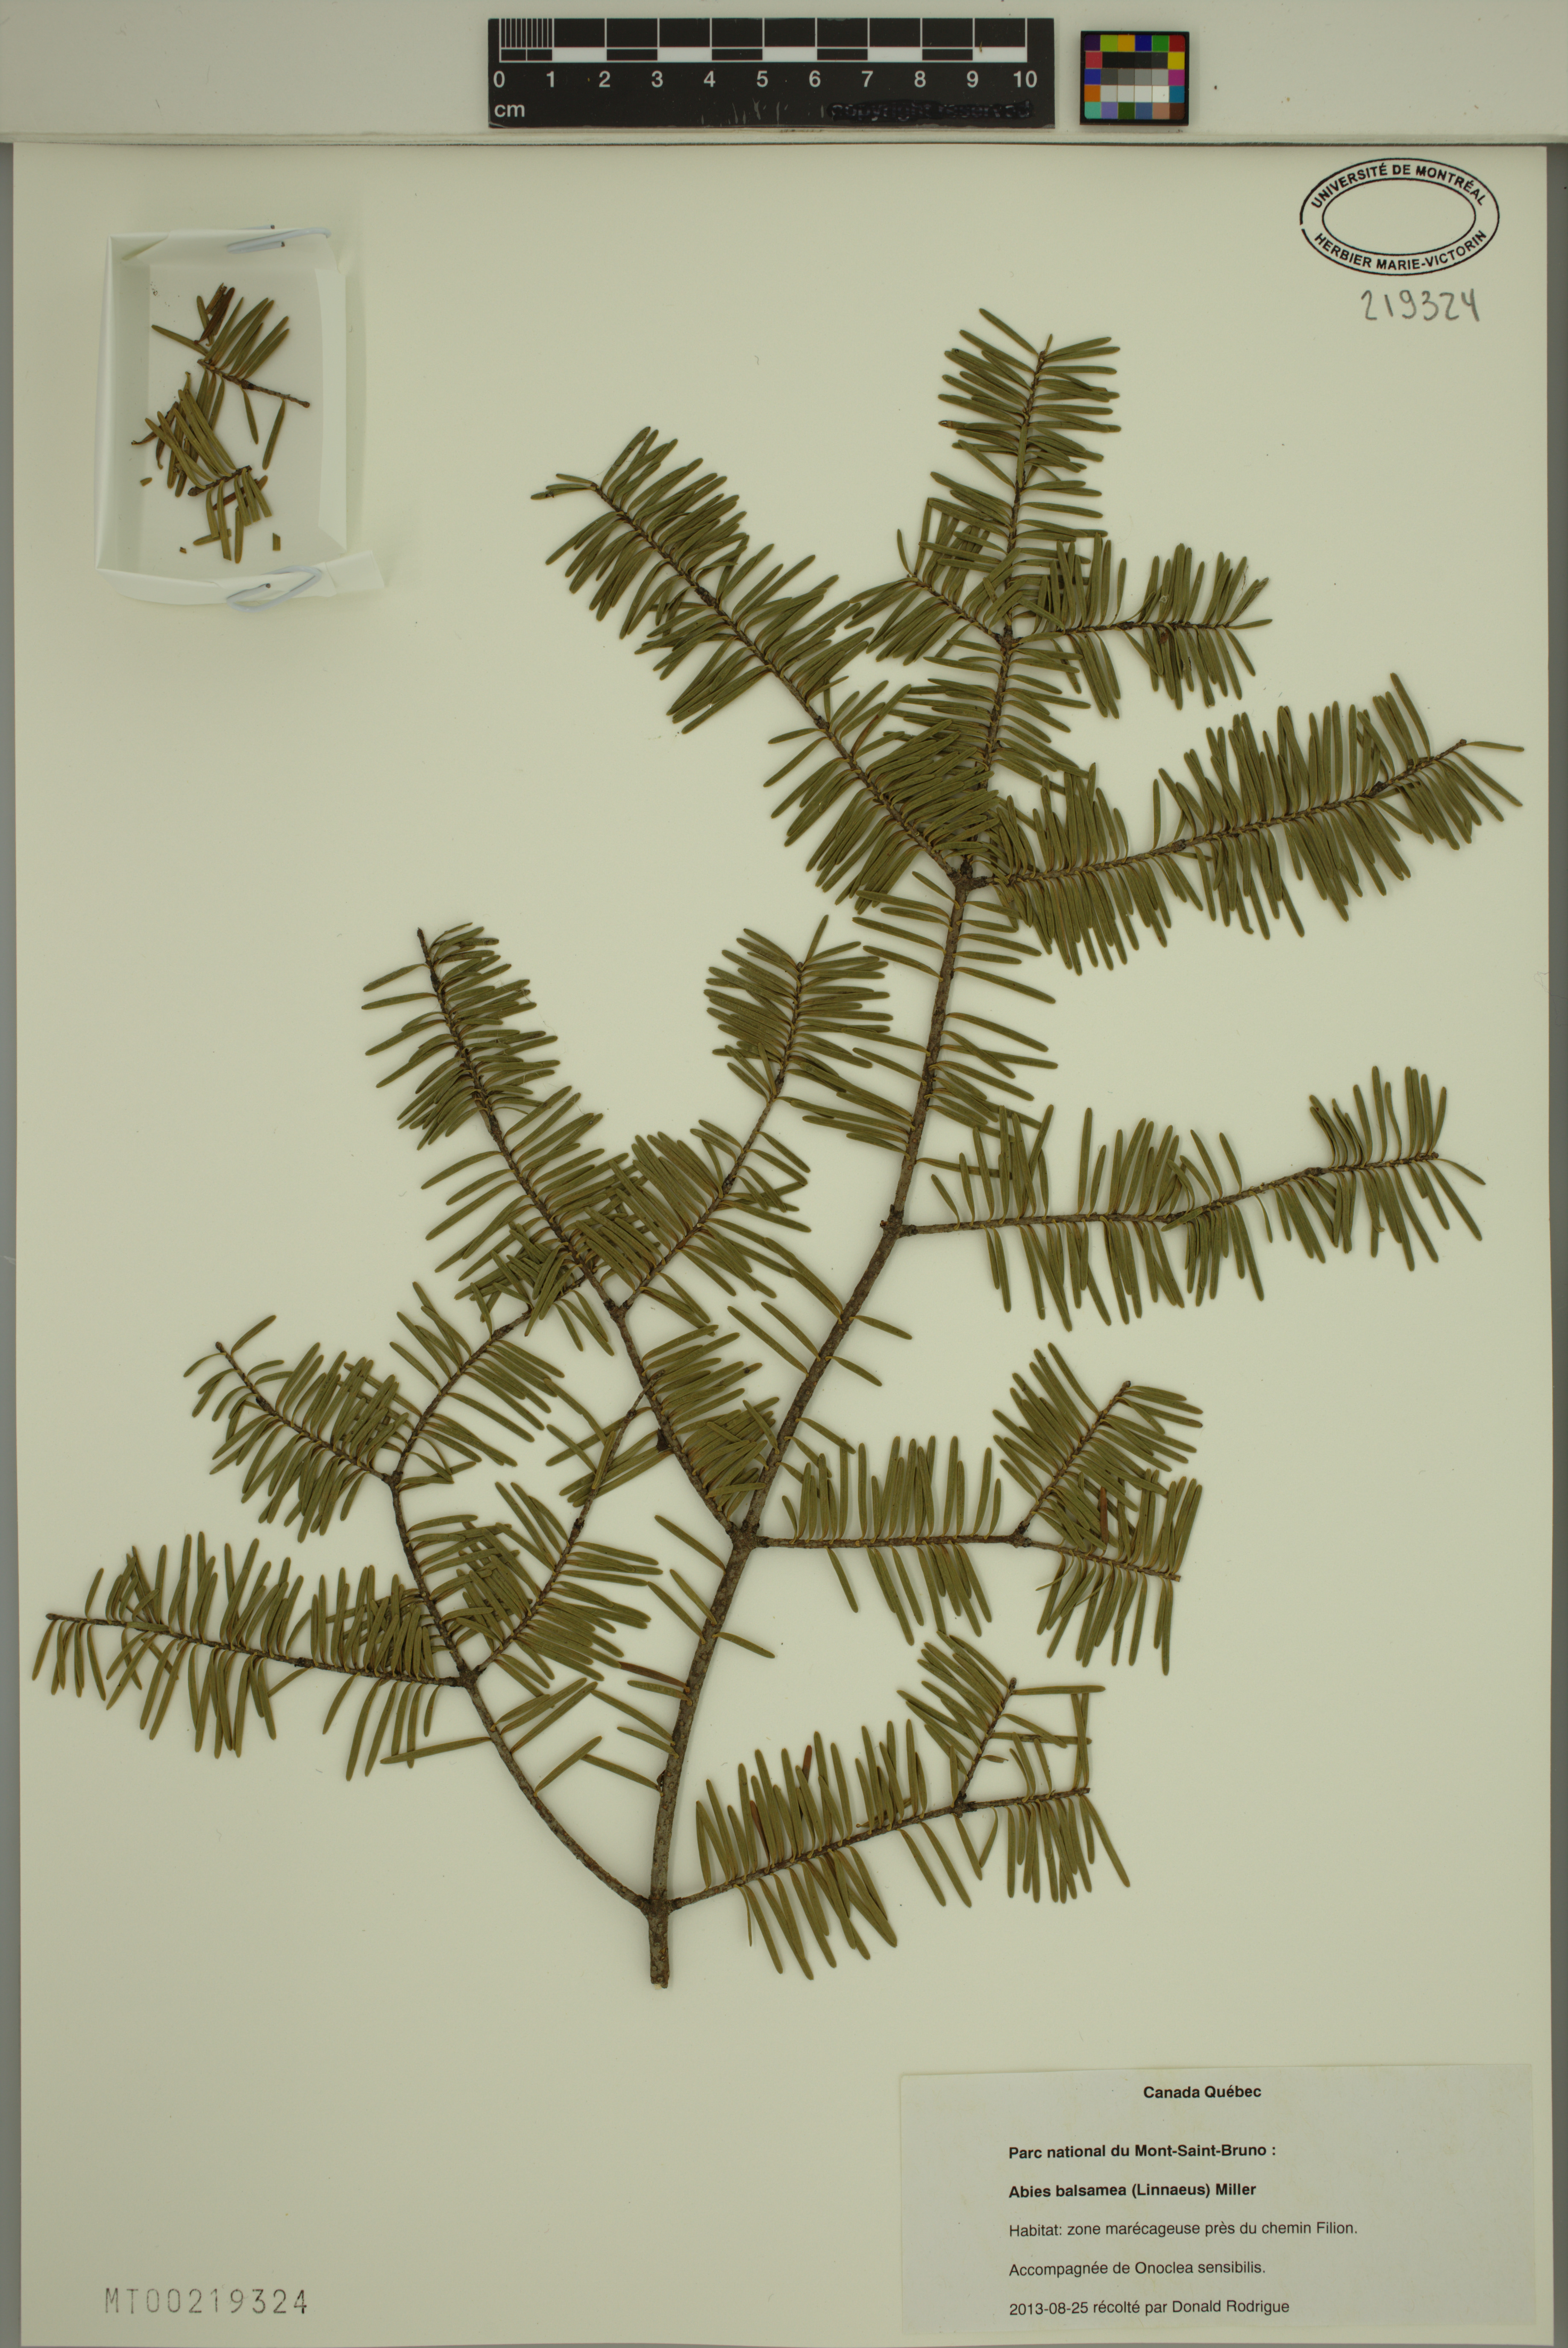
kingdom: Plantae
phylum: Tracheophyta
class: Pinopsida
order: Pinales
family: Pinaceae
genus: Abies
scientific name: Abies balsamea
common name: Balsam fir
